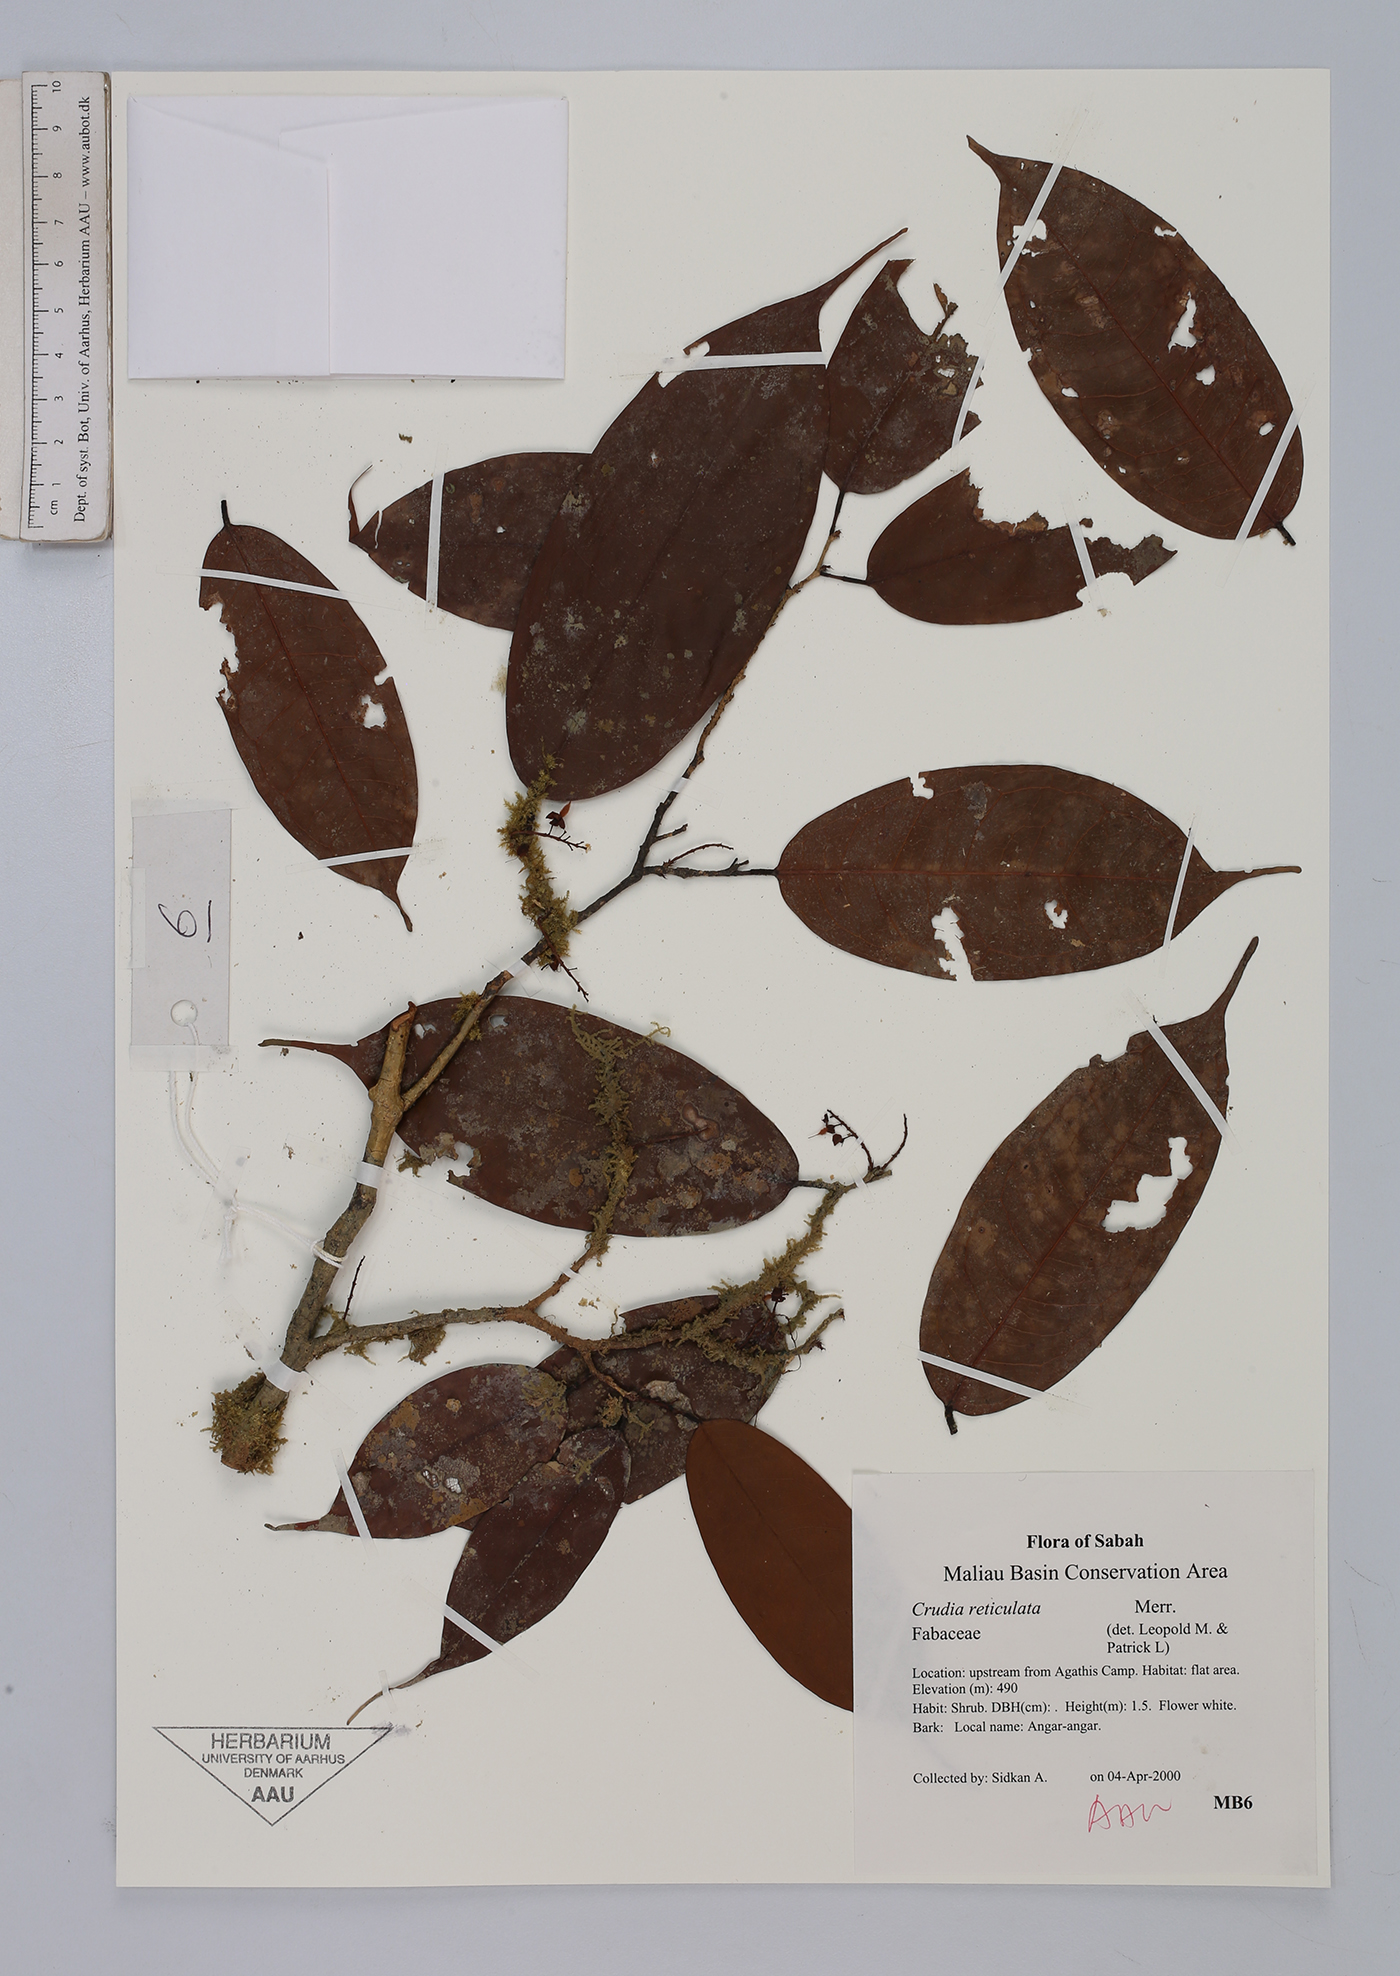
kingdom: Plantae
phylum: Tracheophyta
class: Magnoliopsida
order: Fabales
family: Fabaceae
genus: Crudia
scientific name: Crudia bantamensis
